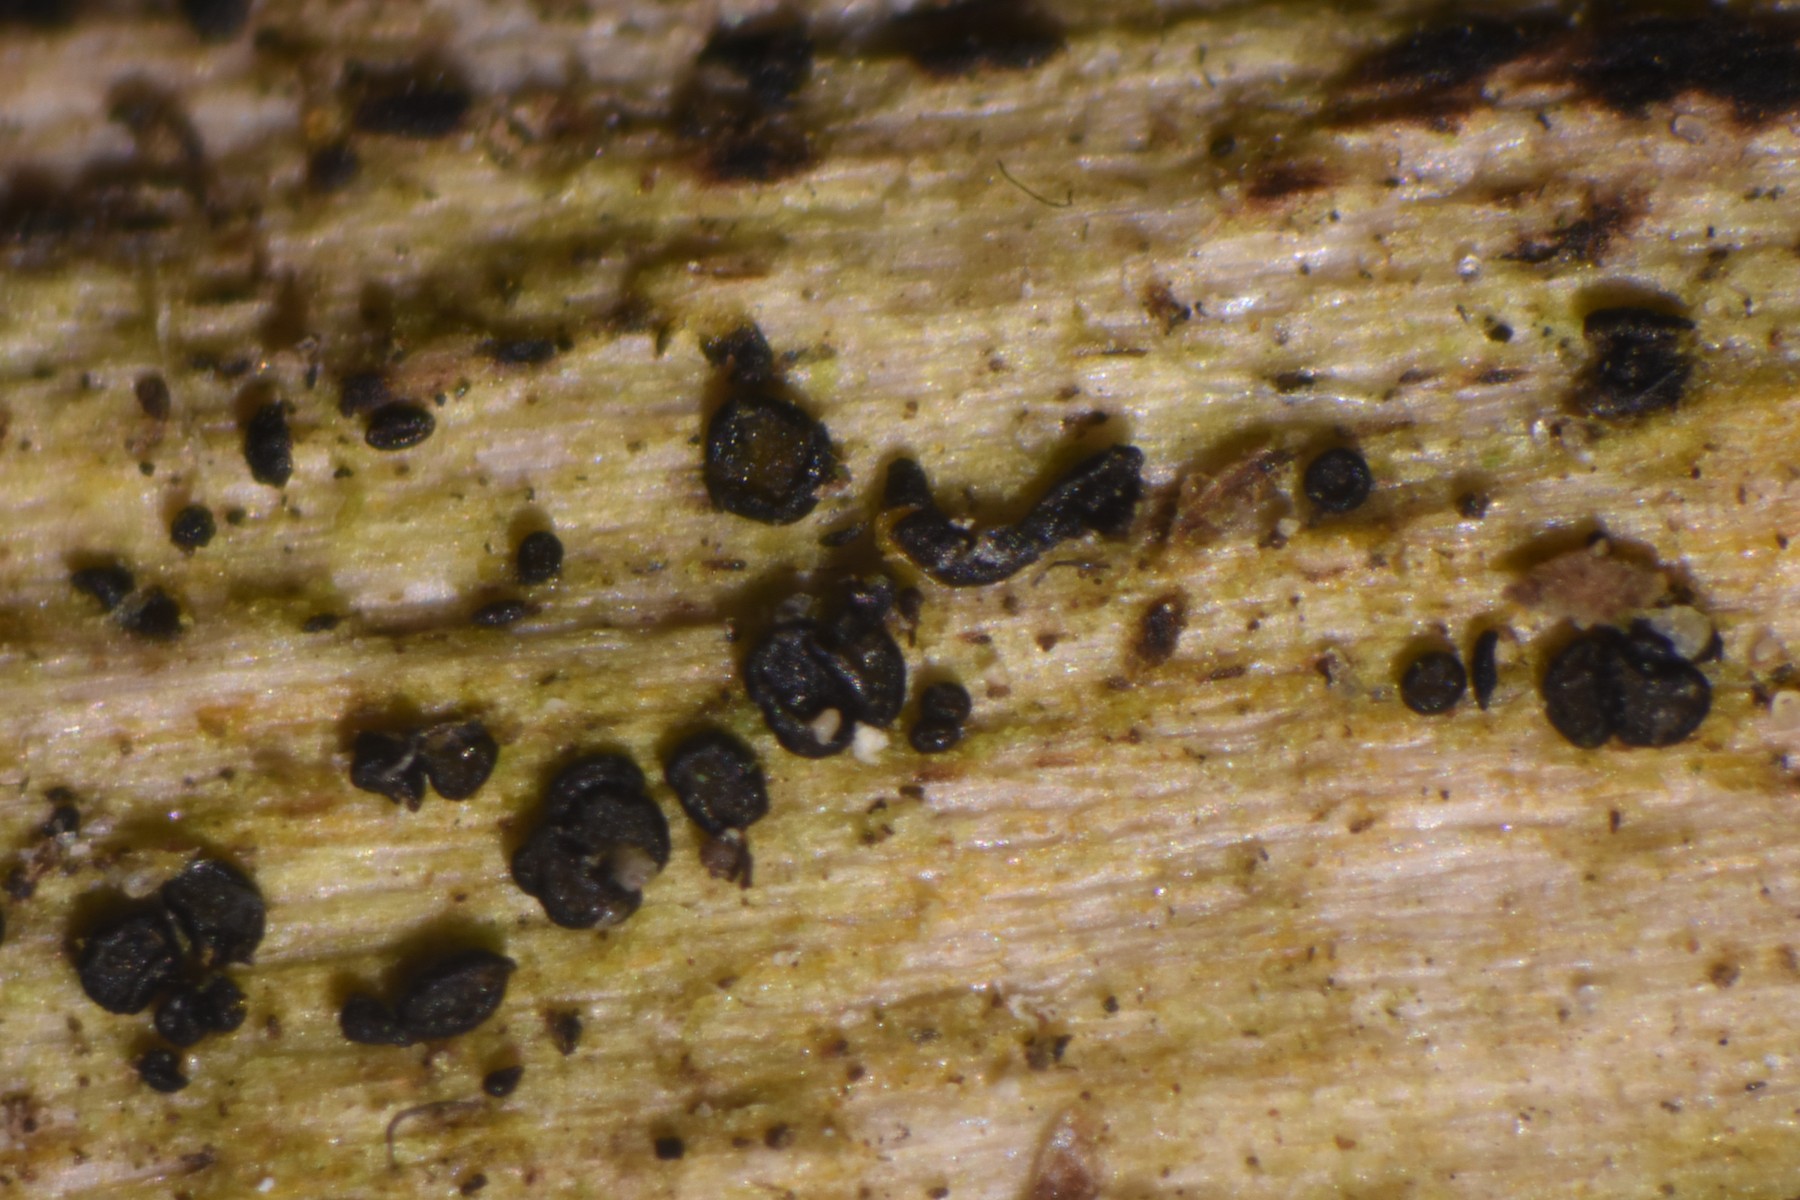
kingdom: Fungi
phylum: Ascomycota
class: Leotiomycetes
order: Helotiales
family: Helotiaceae
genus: Durella
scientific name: Durella connivens
